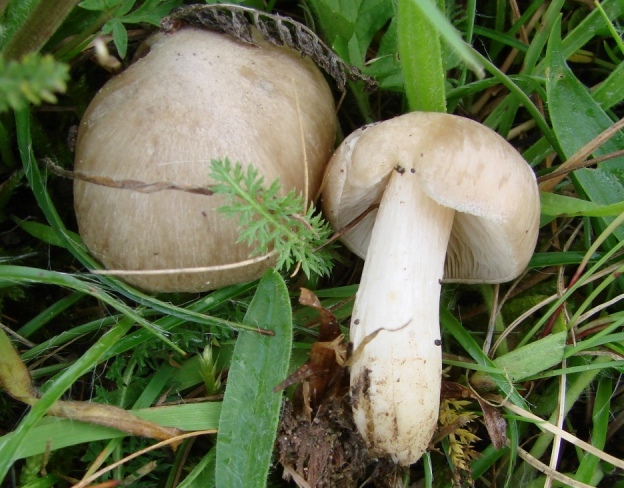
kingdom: Fungi
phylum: Basidiomycota
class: Agaricomycetes
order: Agaricales
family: Entolomataceae
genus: Entoloma
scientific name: Entoloma prunuloides
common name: mel-rødblad
